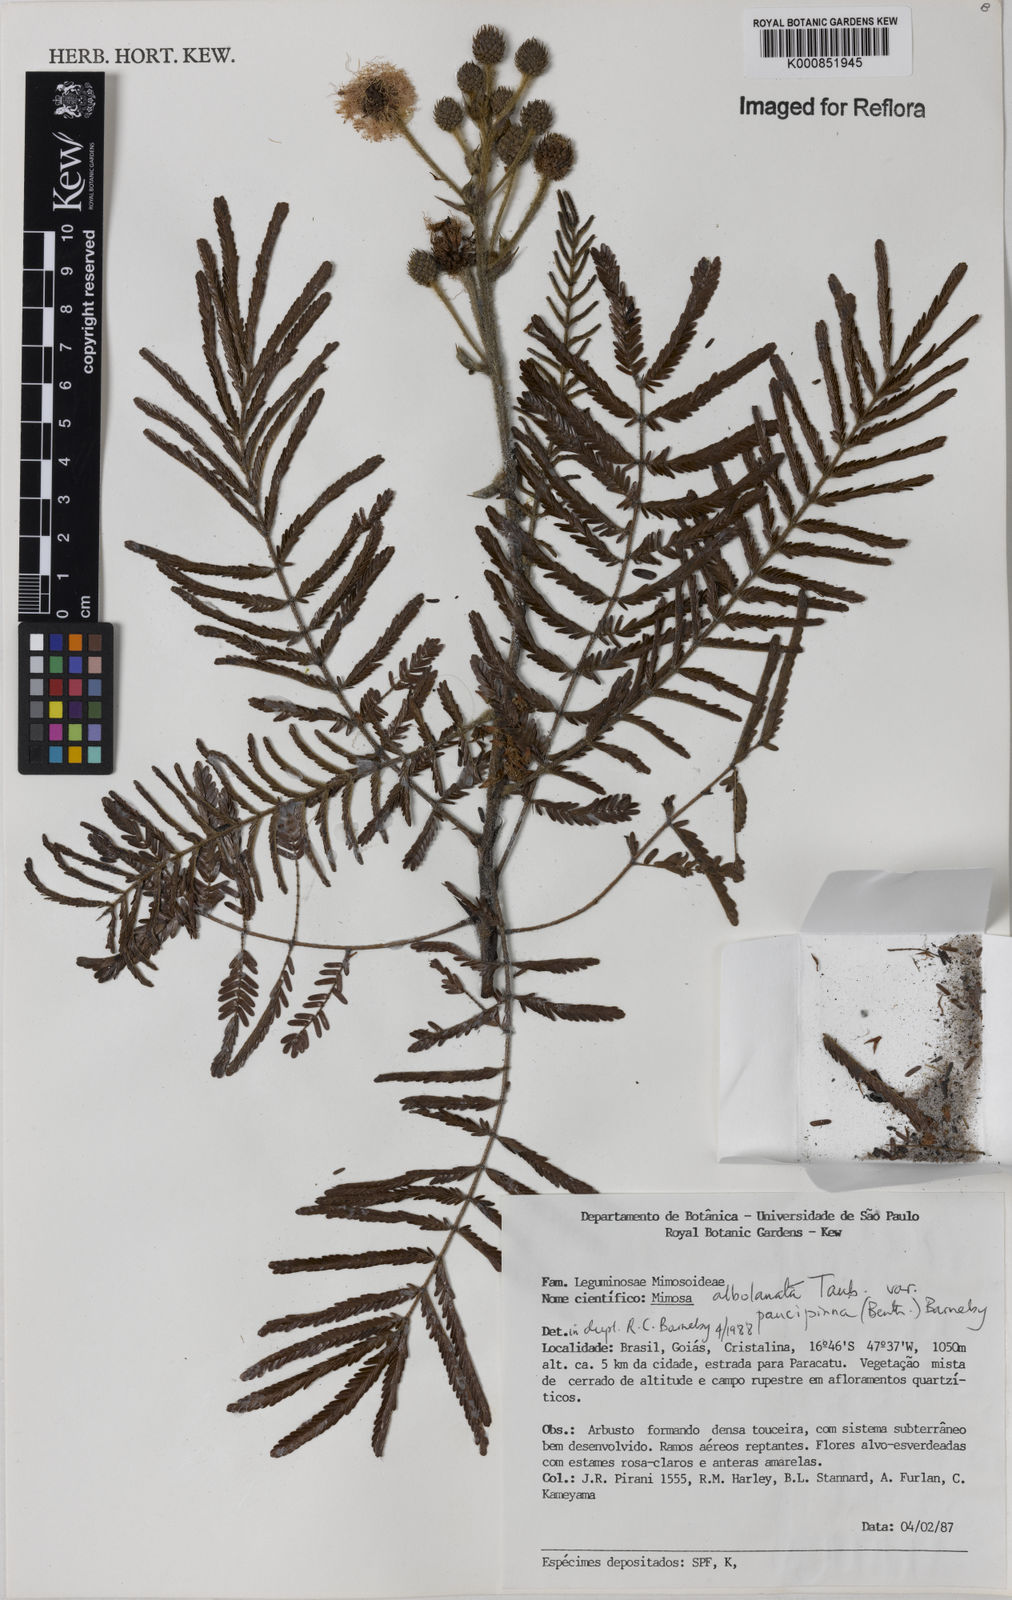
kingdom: Plantae
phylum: Tracheophyta
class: Magnoliopsida
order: Fabales
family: Fabaceae
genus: Mimosa
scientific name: Mimosa albolanata
